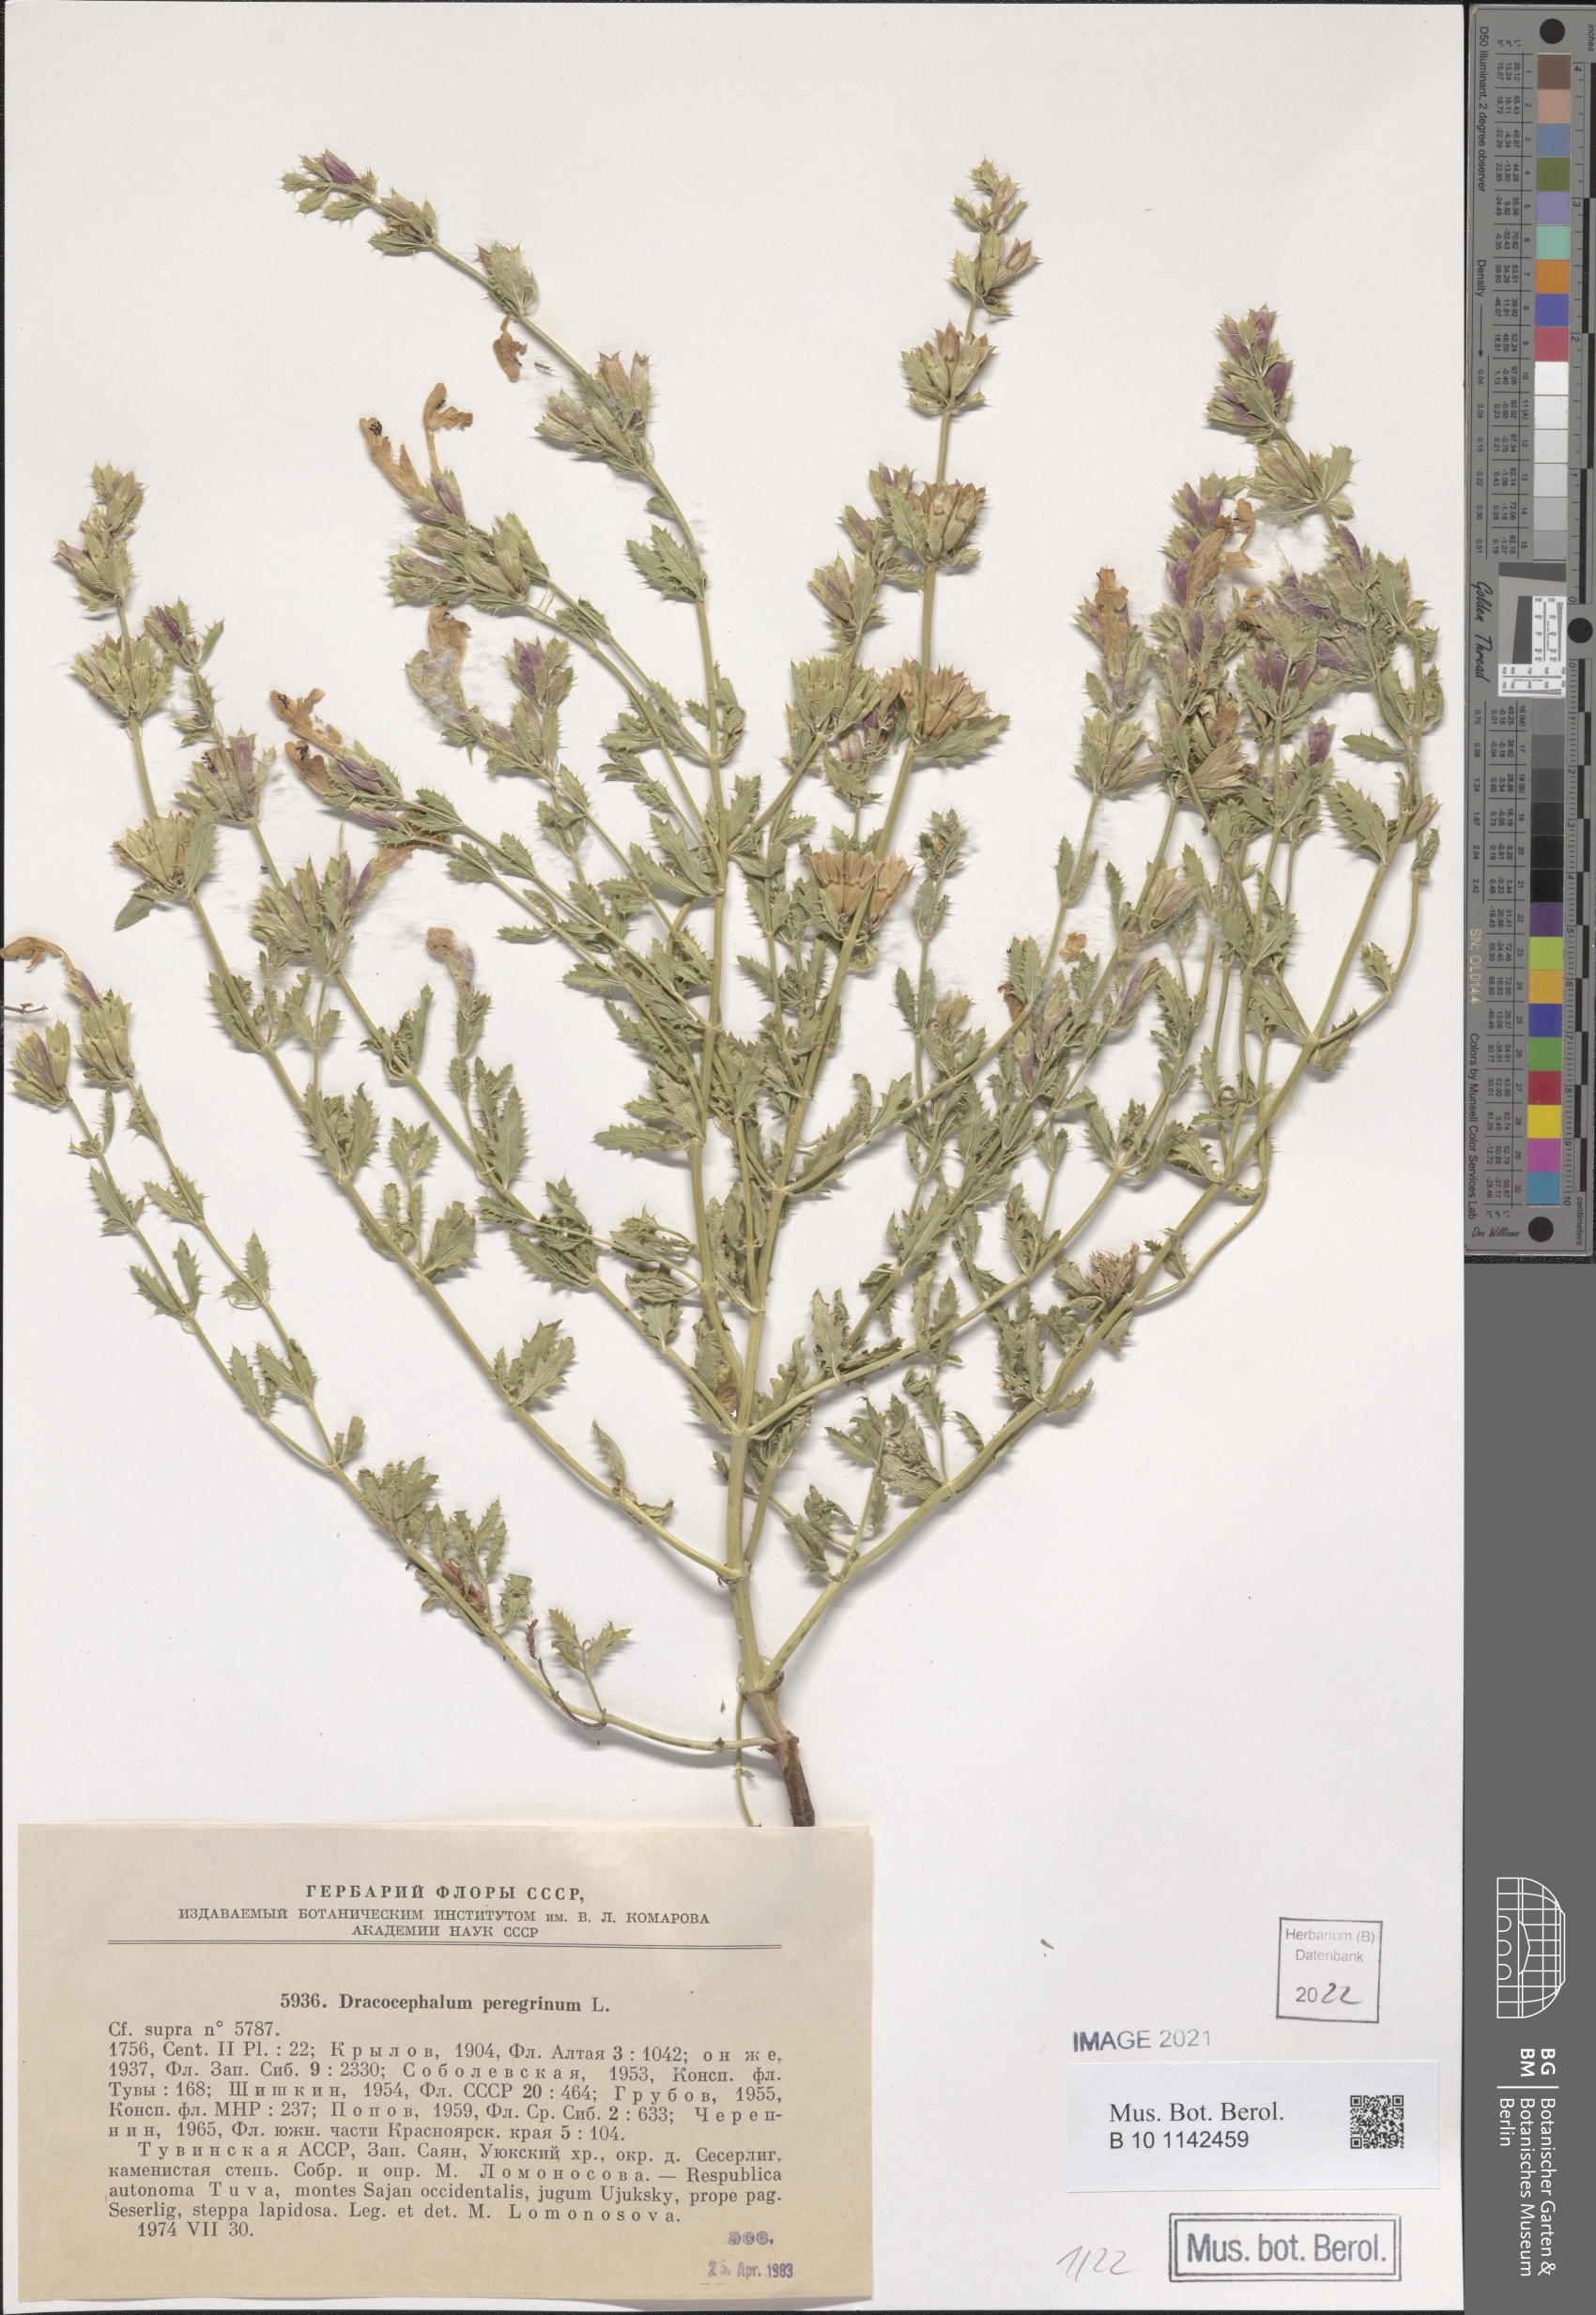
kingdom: Plantae
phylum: Tracheophyta
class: Magnoliopsida
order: Lamiales
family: Lamiaceae
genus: Dracocephalum
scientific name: Dracocephalum peregrinum
